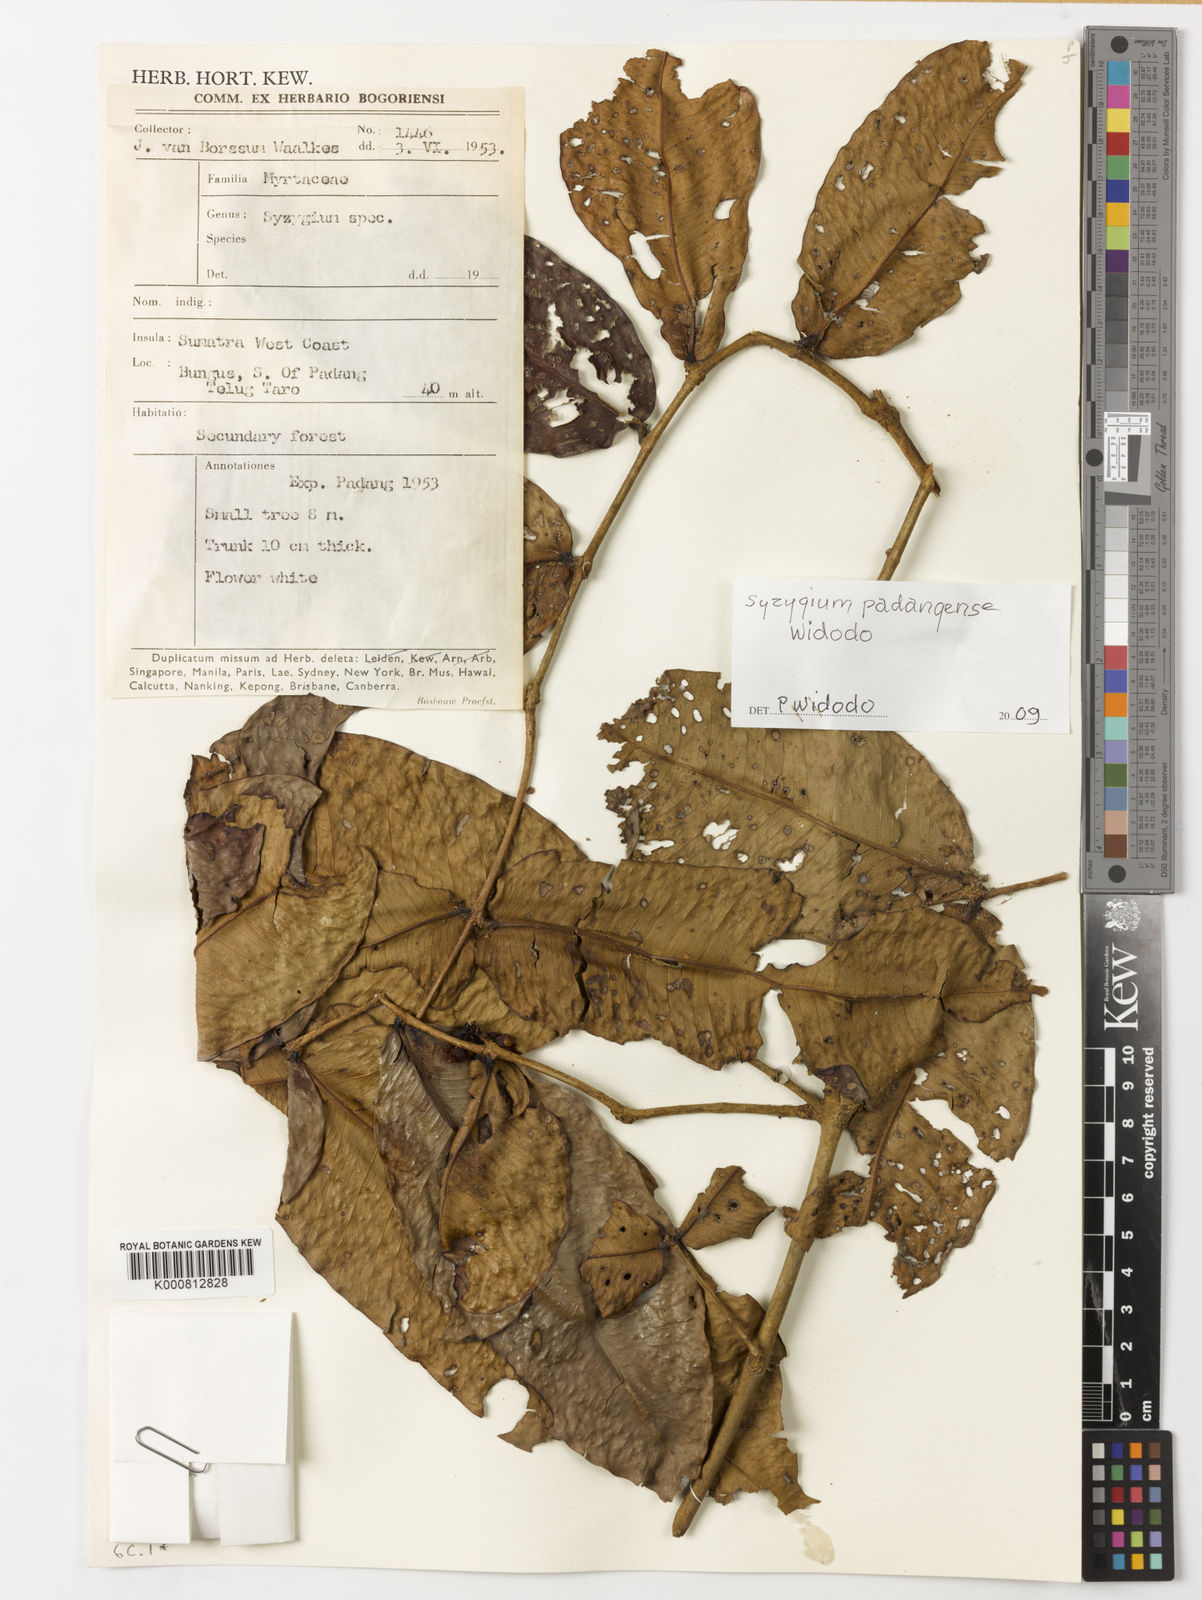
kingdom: Plantae
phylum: Tracheophyta
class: Magnoliopsida
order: Myrtales
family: Myrtaceae
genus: Syzygium
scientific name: Syzygium padangense
